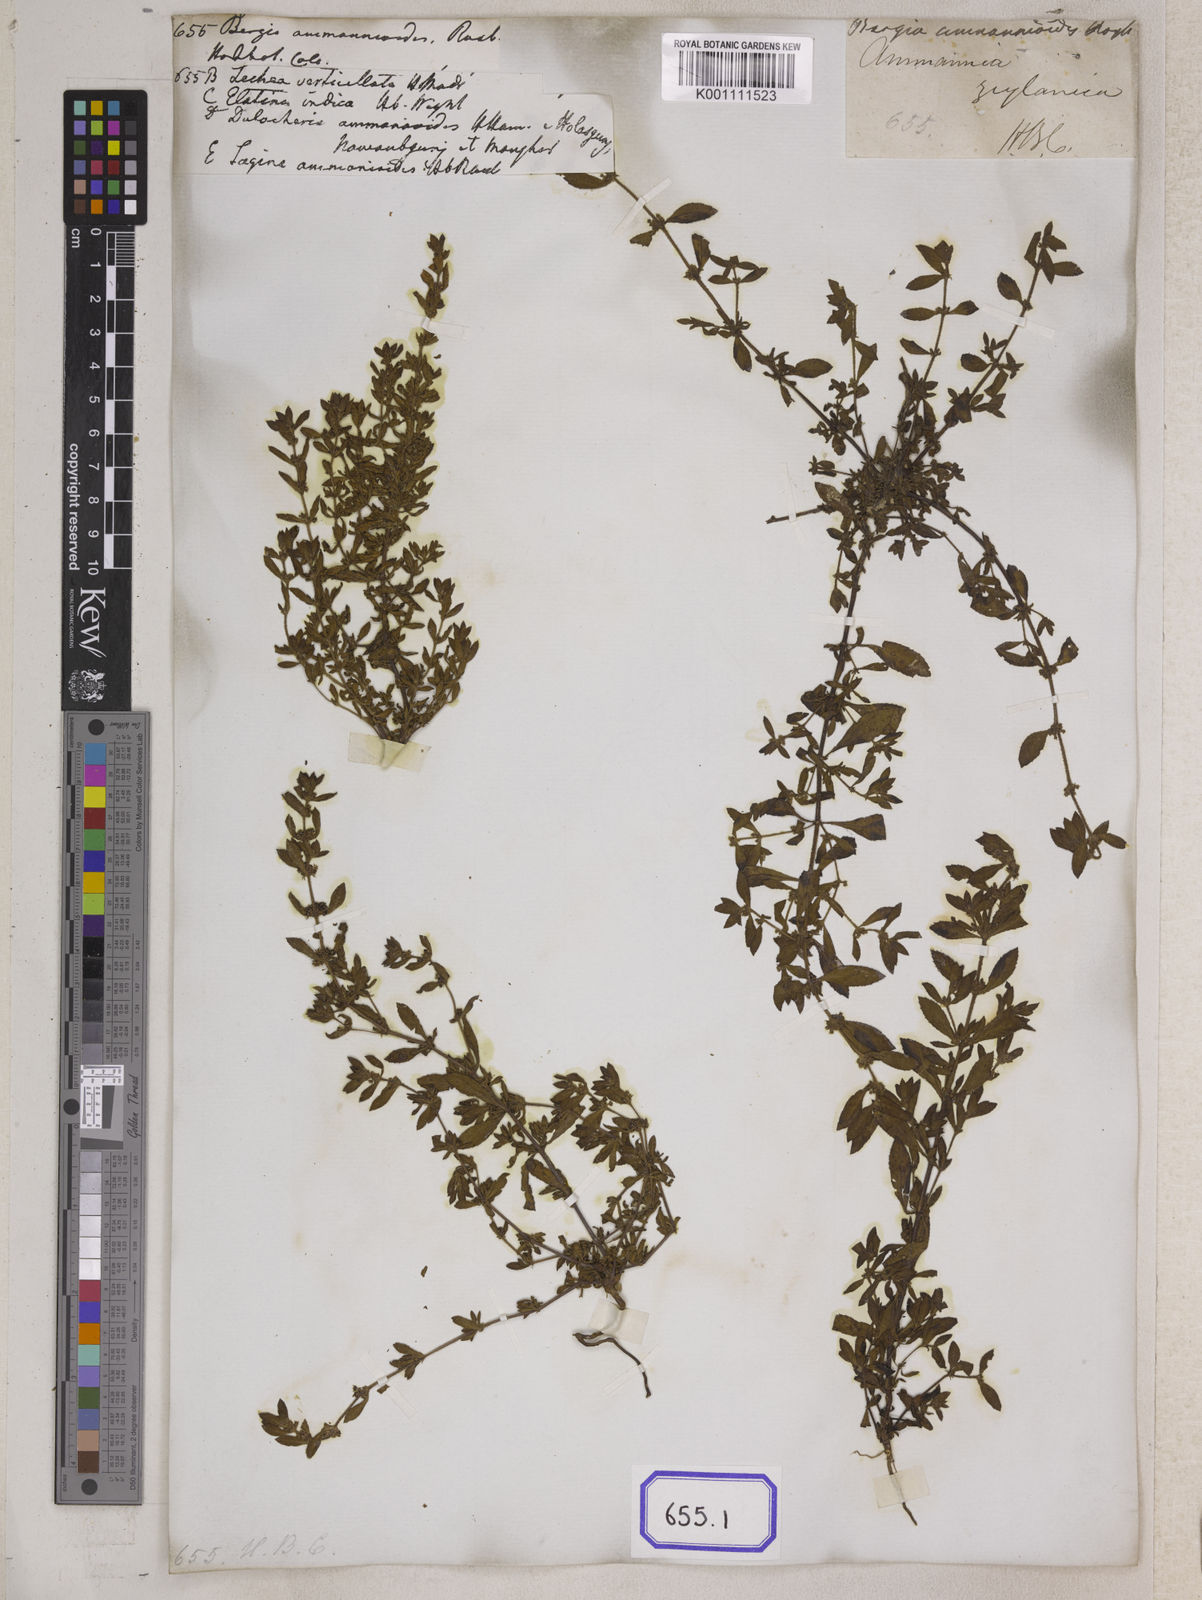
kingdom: Plantae
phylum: Tracheophyta
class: Magnoliopsida
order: Malpighiales
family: Elatinaceae
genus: Bergia
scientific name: Bergia ammannioides
